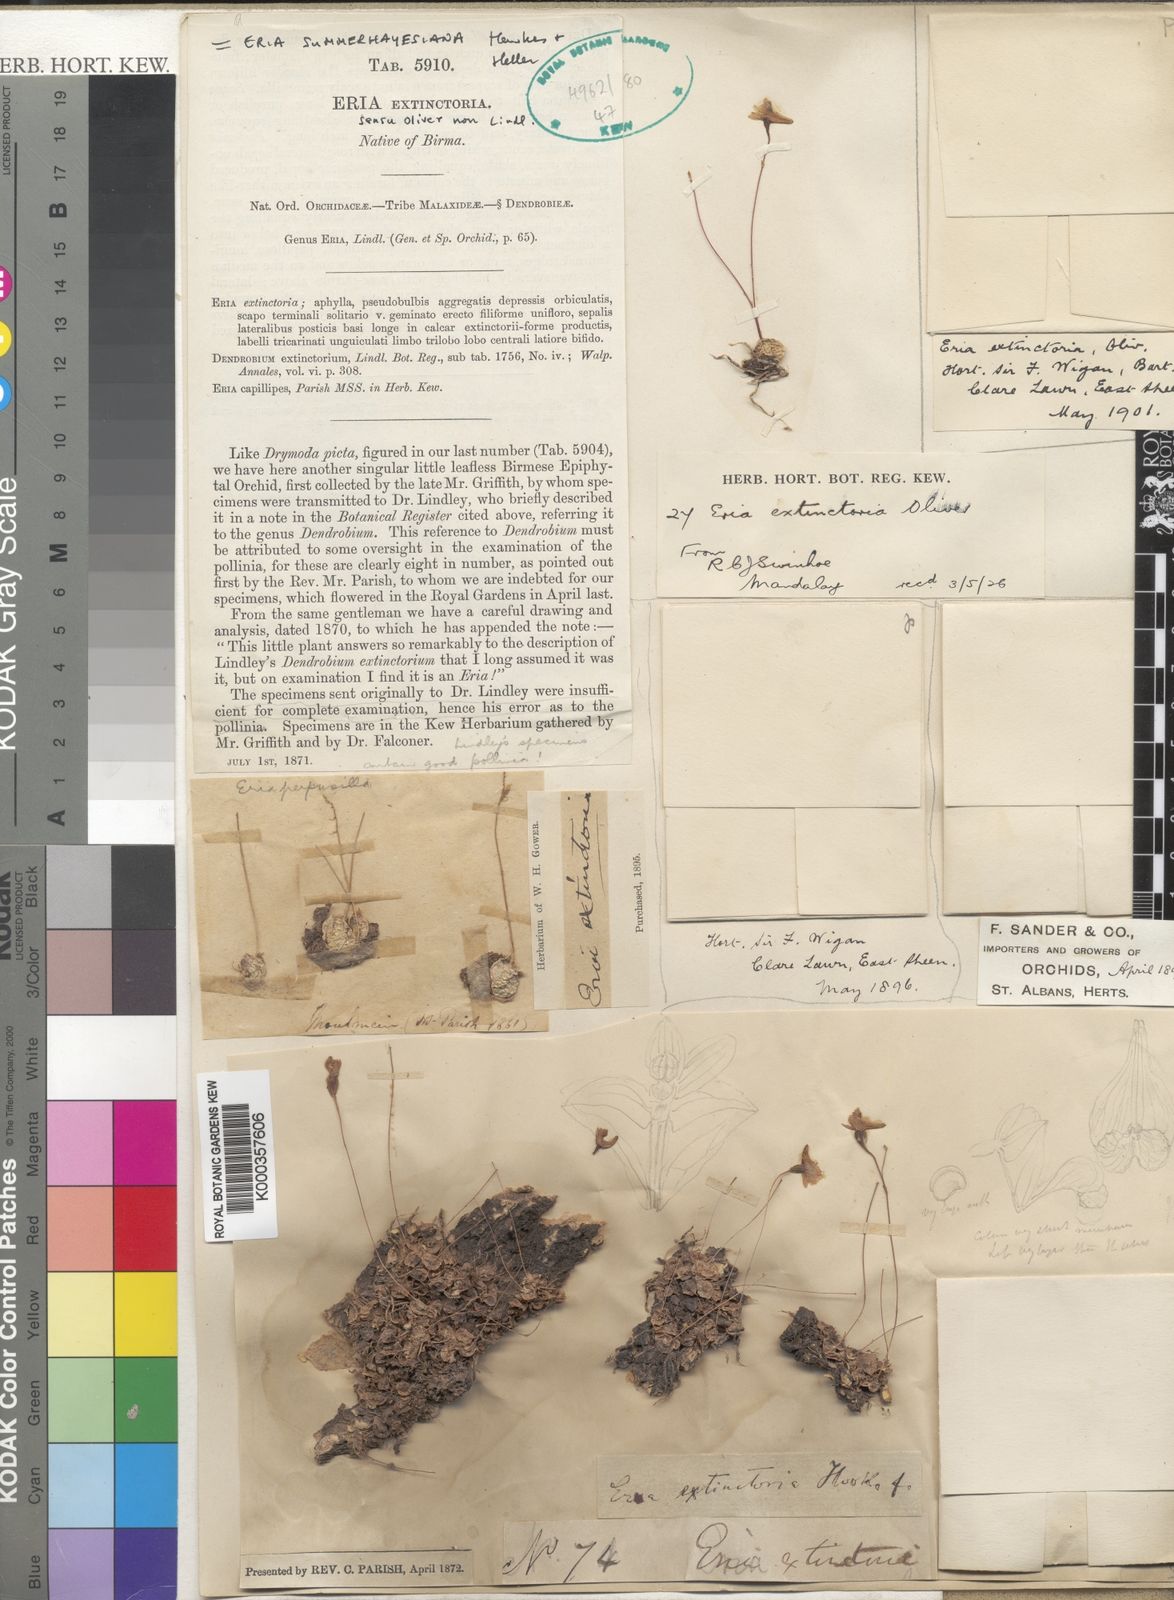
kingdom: Plantae
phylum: Tracheophyta
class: Liliopsida
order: Asparagales
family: Orchidaceae
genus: Porpax
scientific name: Porpax extinctoria
